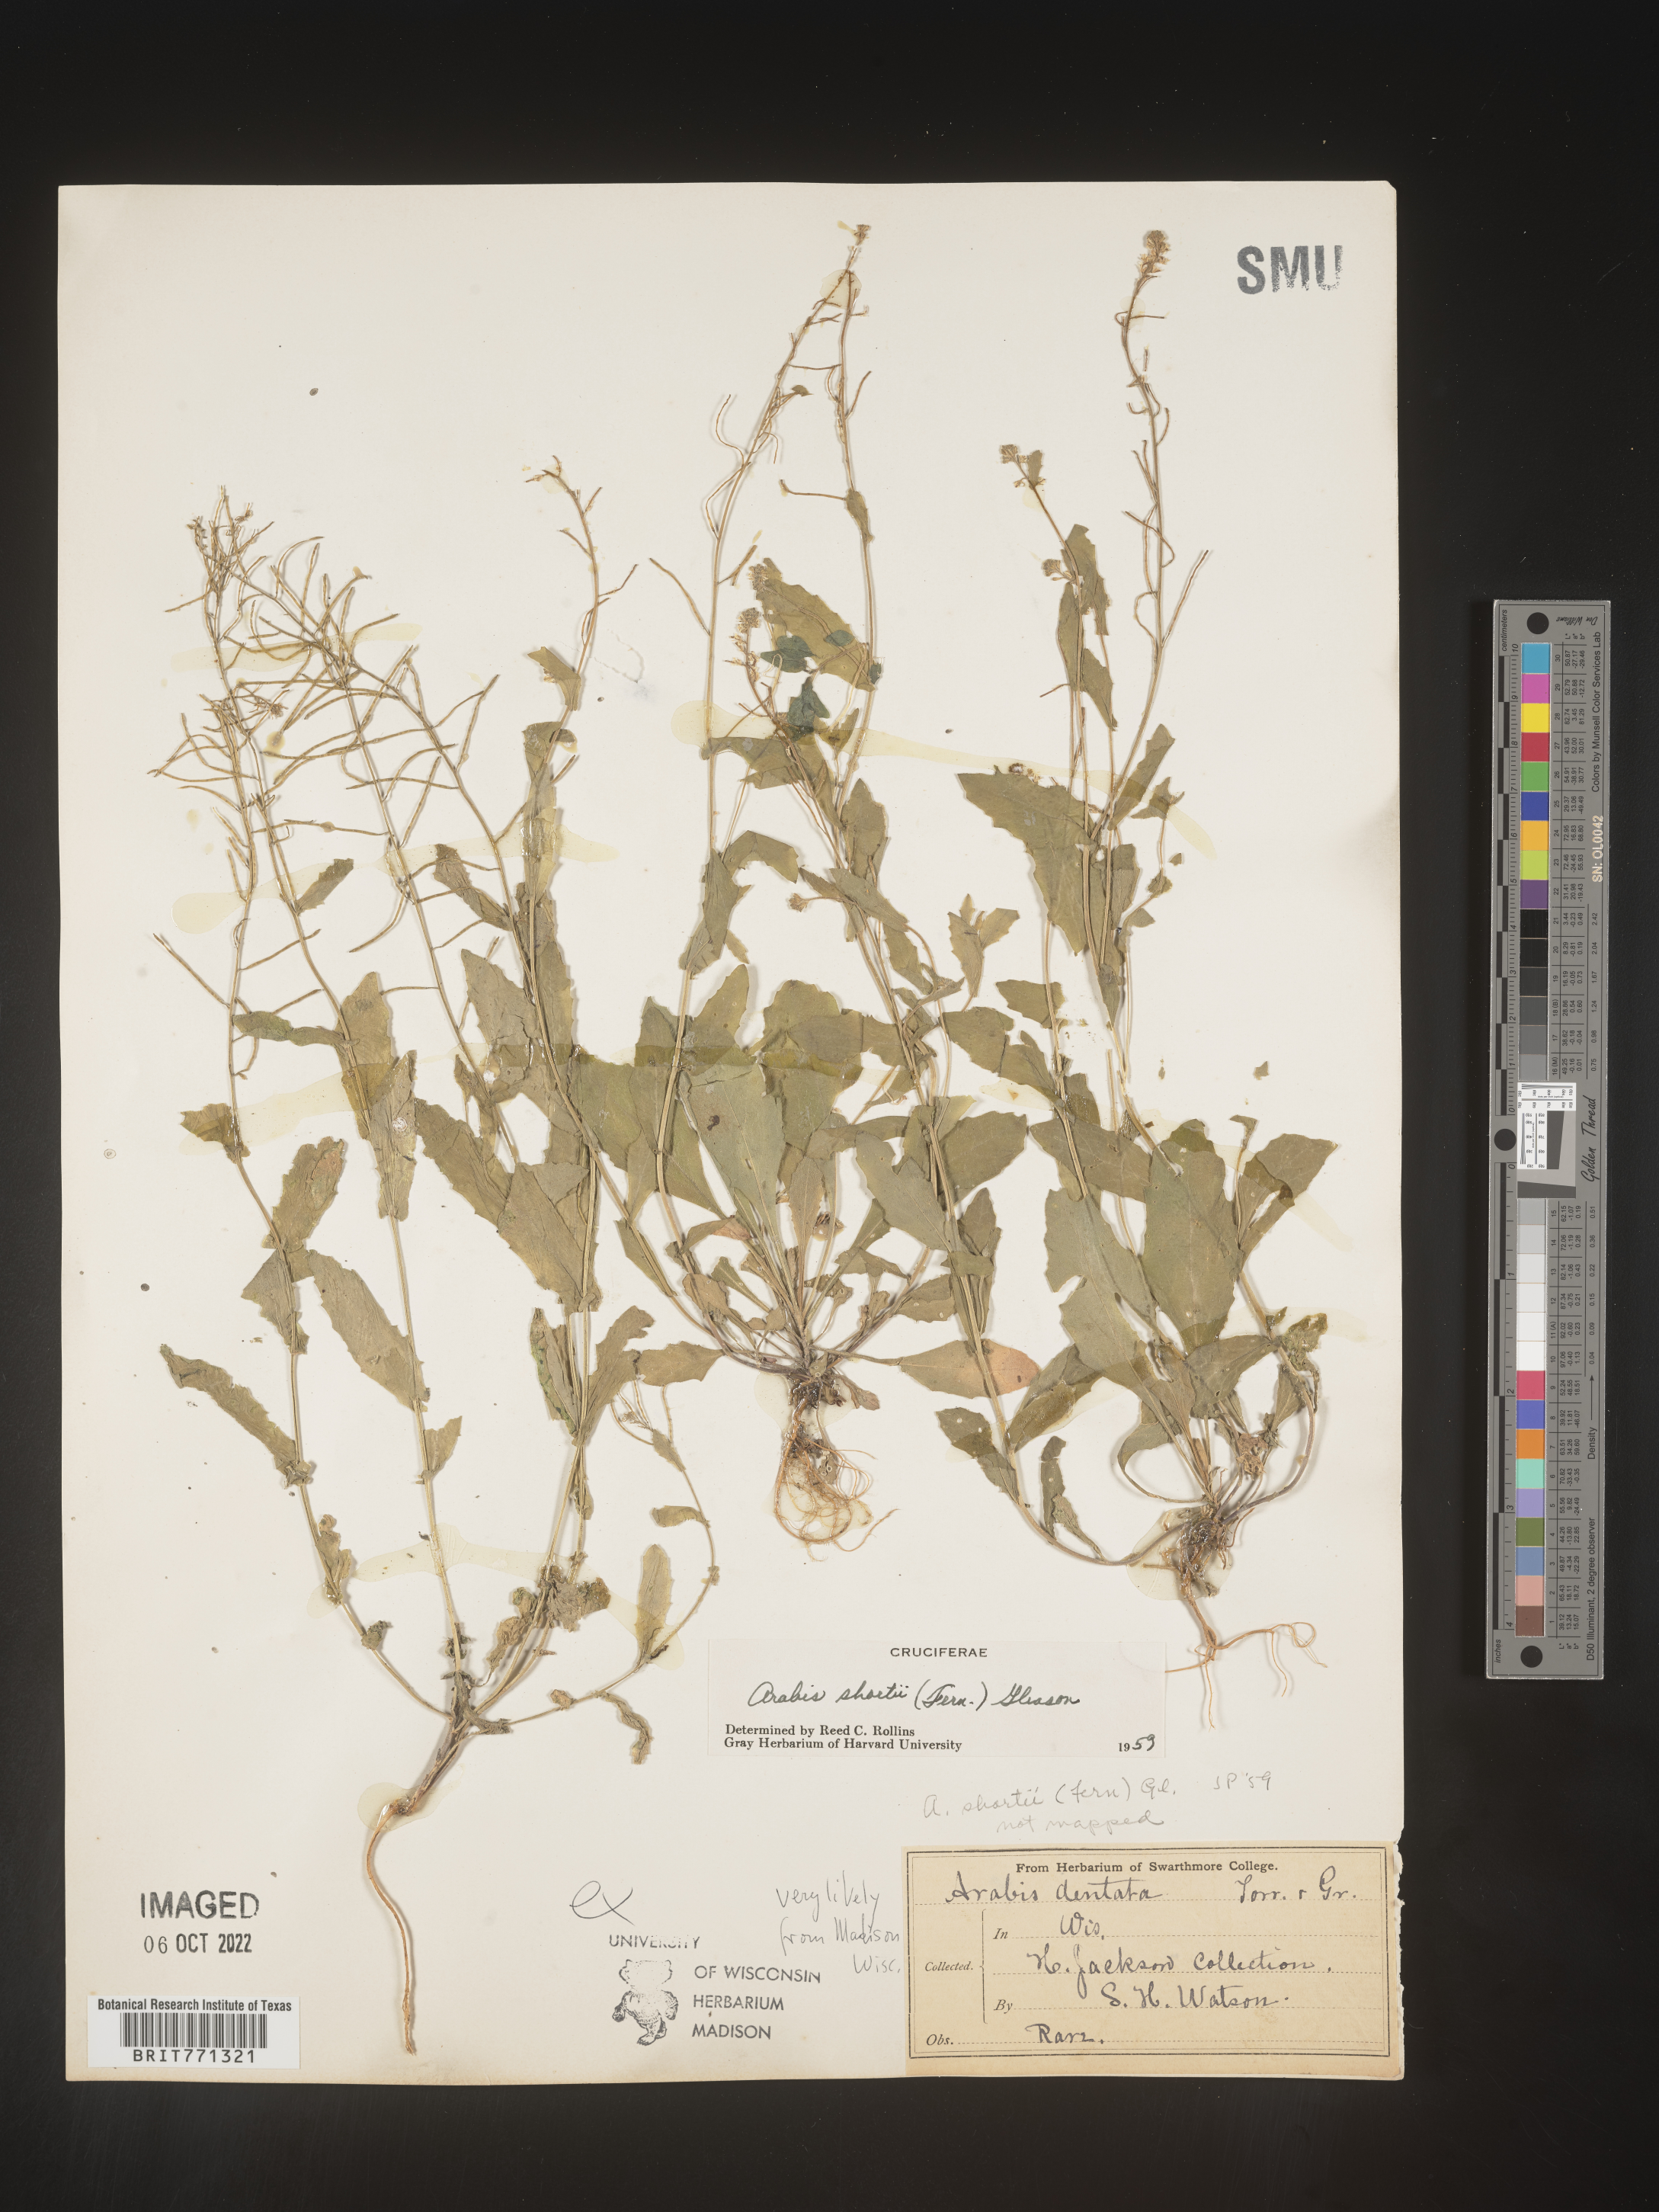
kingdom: Plantae
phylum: Tracheophyta
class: Magnoliopsida
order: Brassicales
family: Brassicaceae
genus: Arabis
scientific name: Arabis
